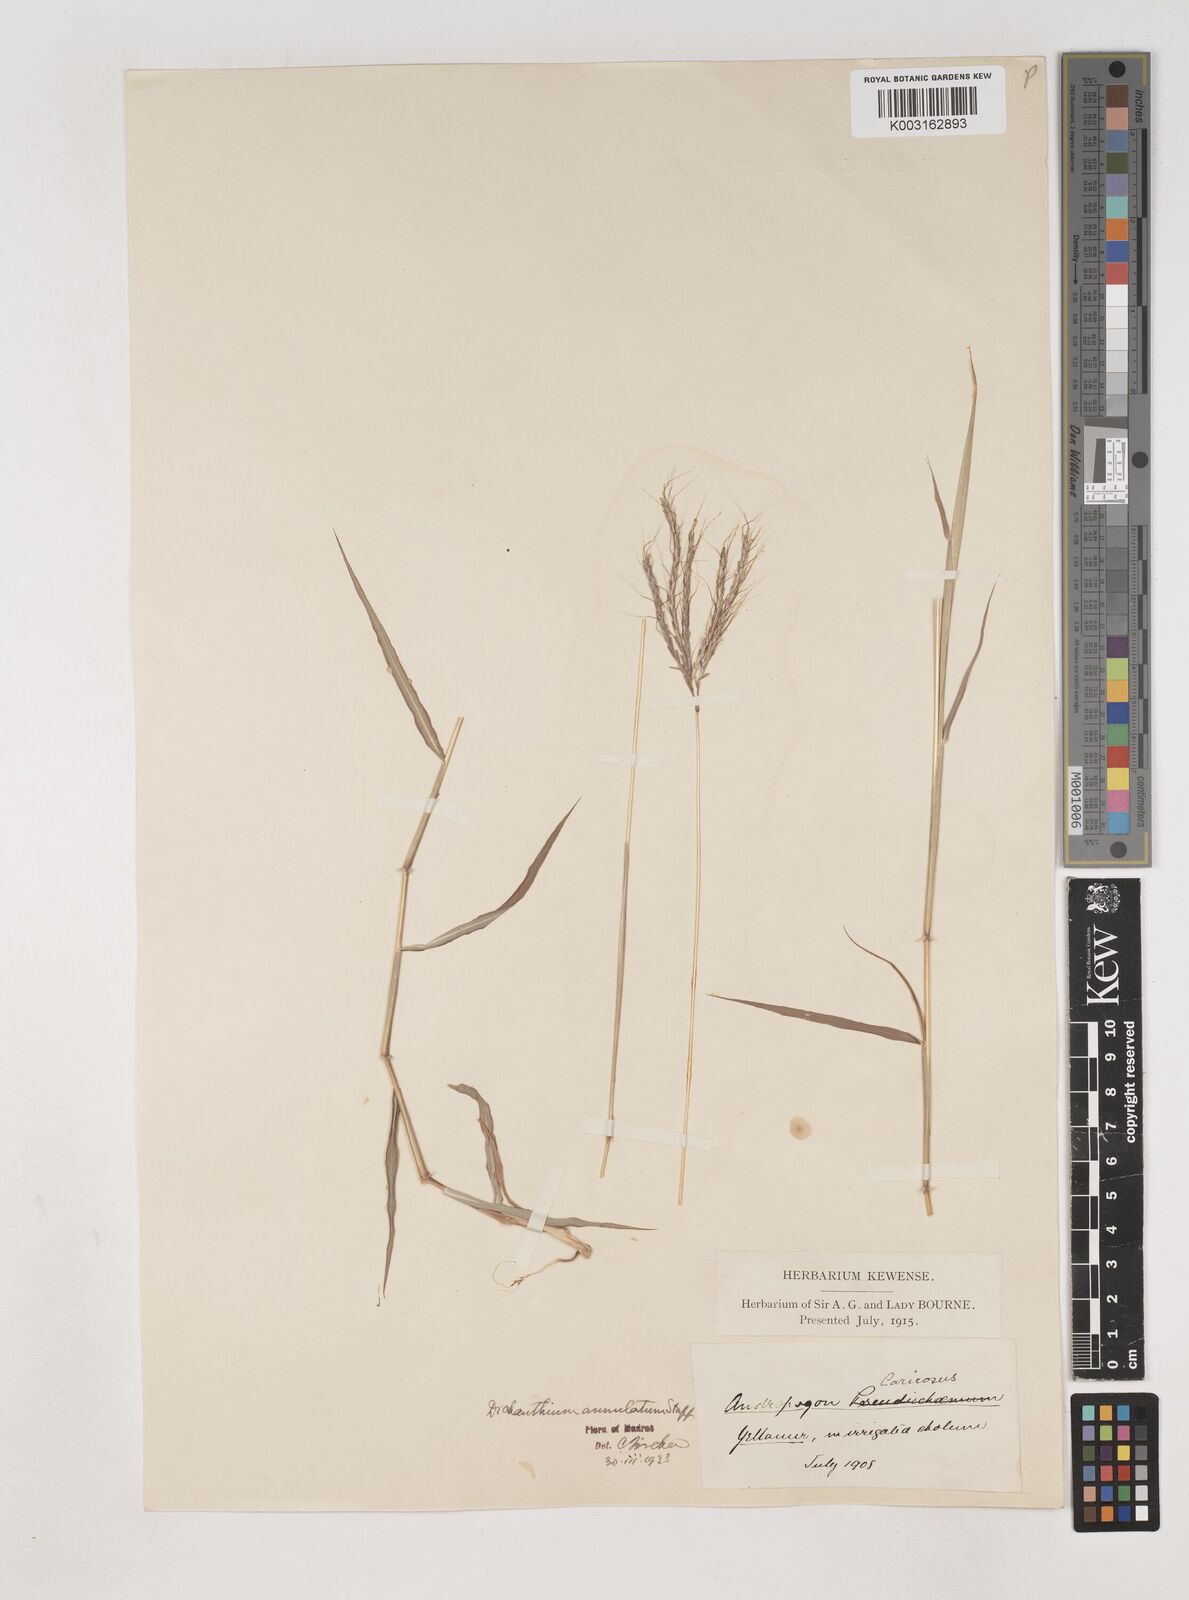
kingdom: Plantae
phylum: Tracheophyta
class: Liliopsida
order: Poales
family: Poaceae
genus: Dichanthium
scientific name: Dichanthium annulatum
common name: Kleberg's bluestem
